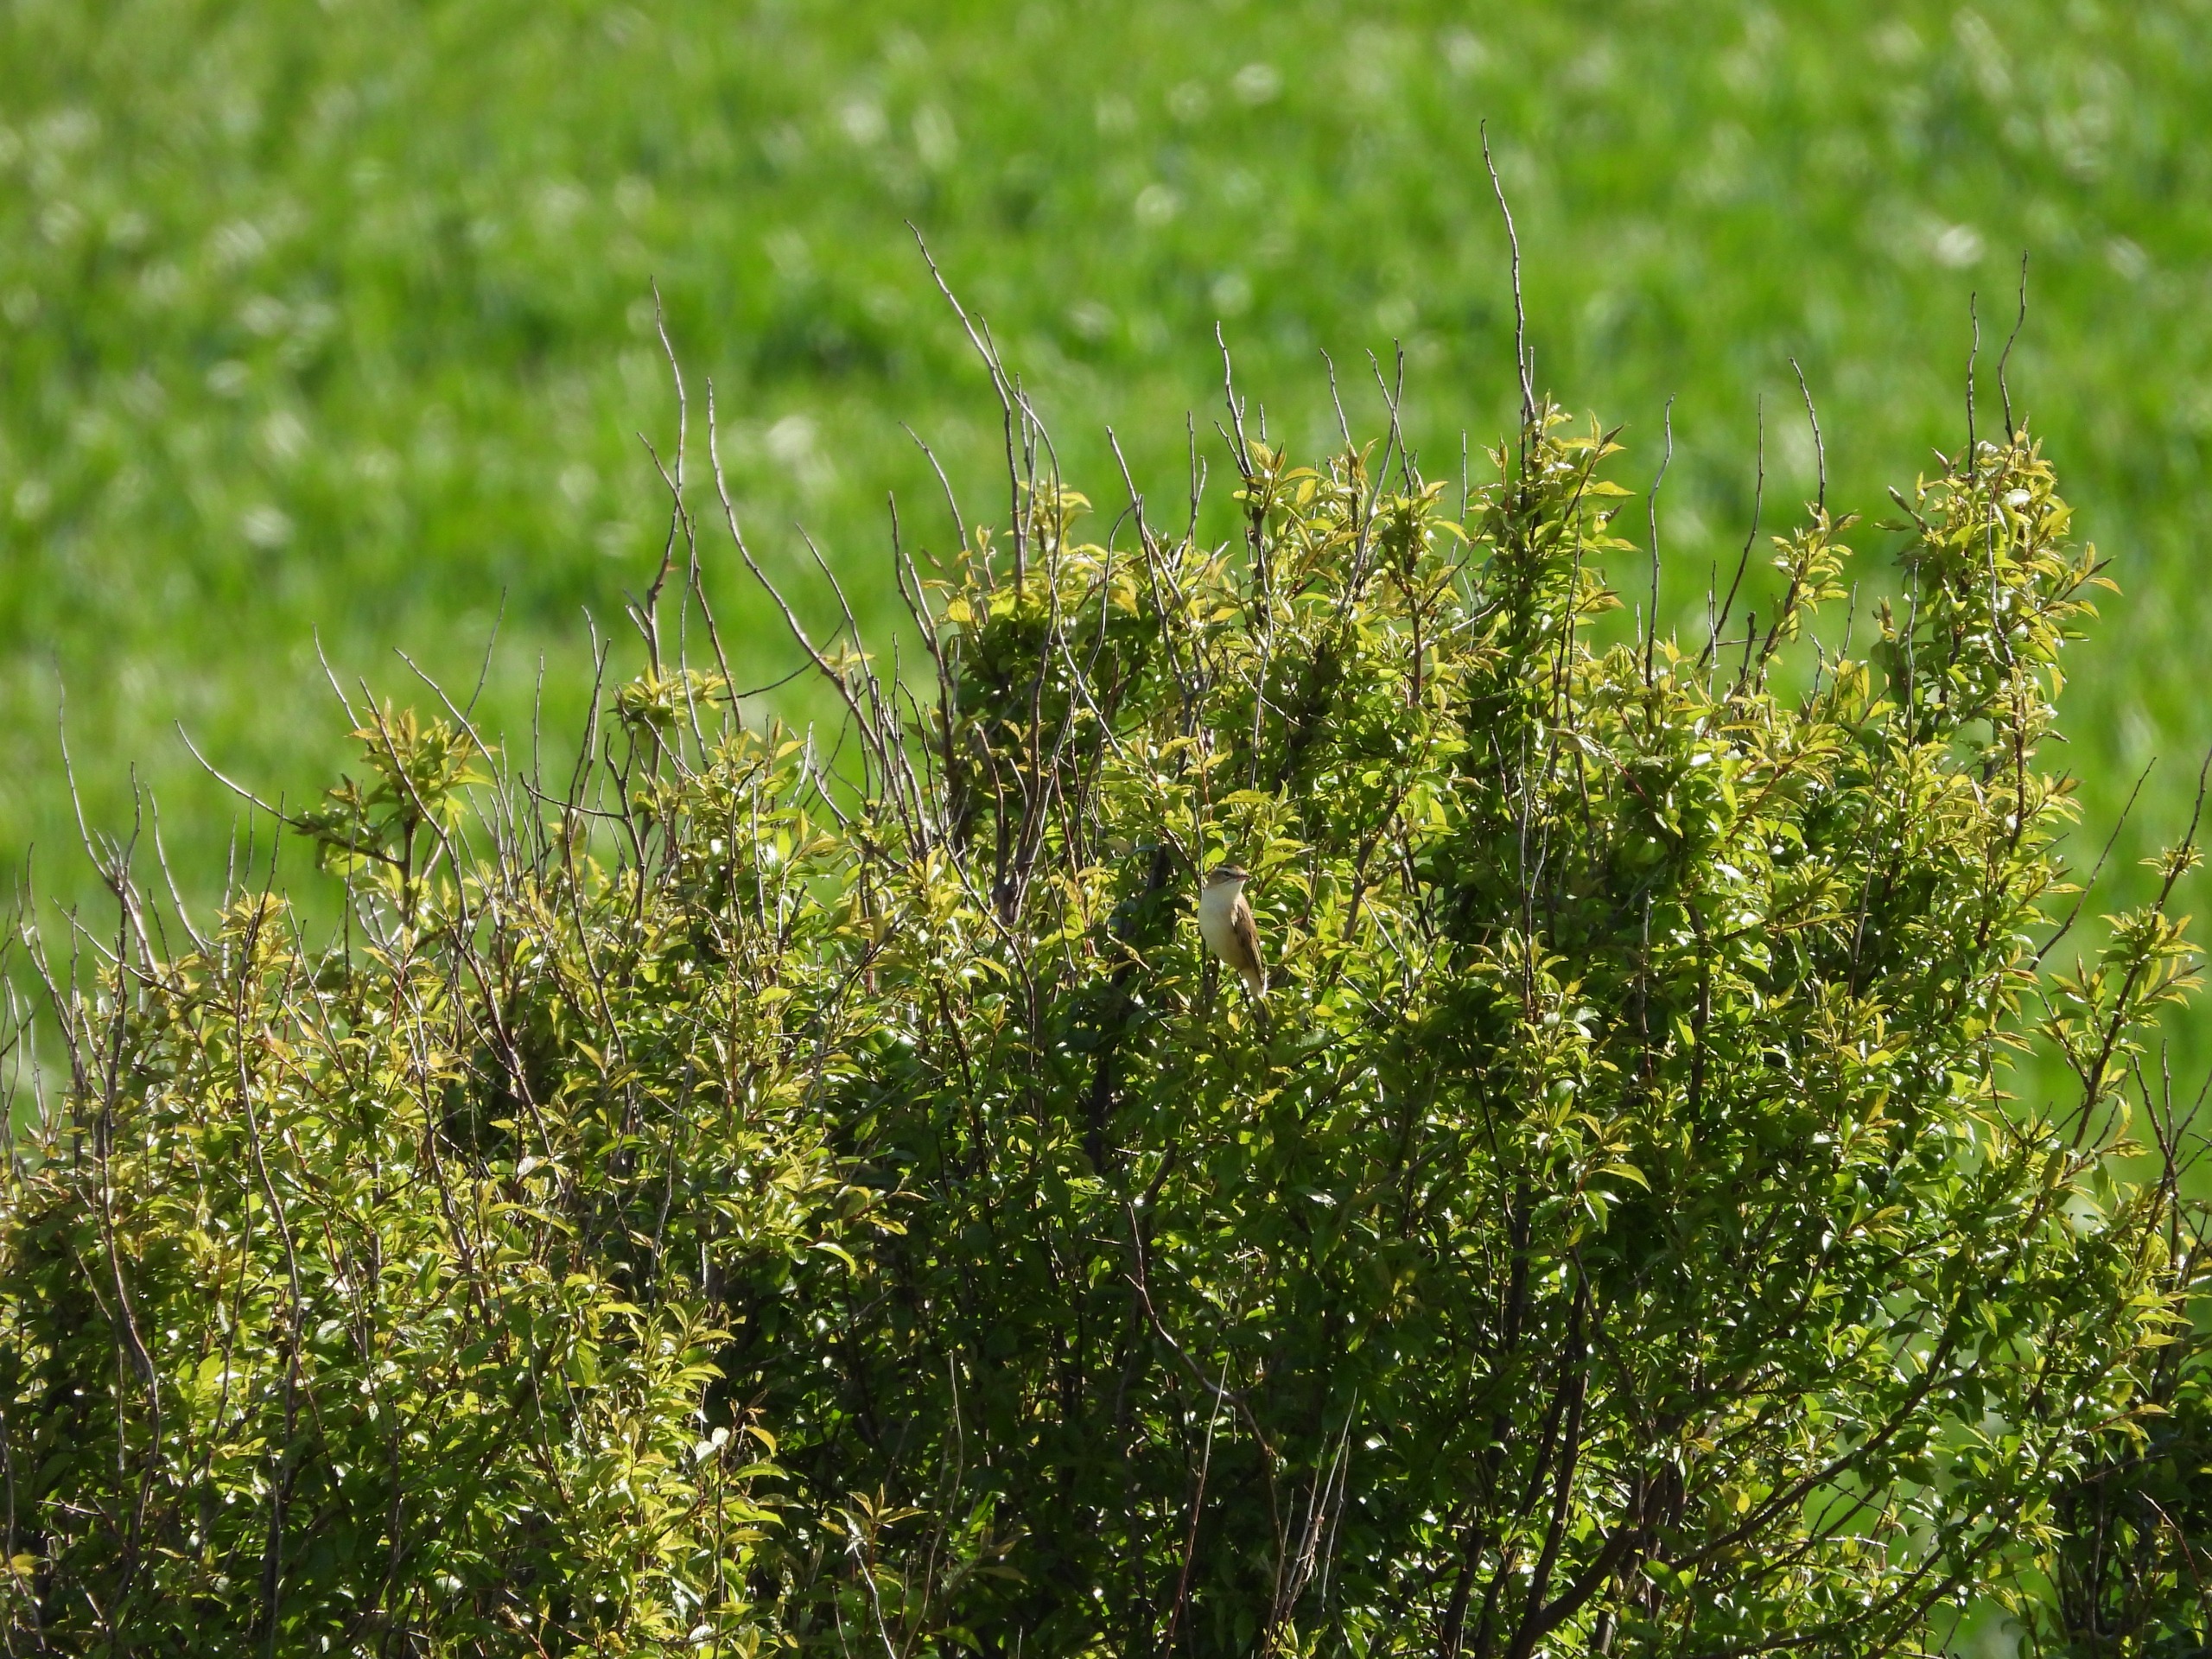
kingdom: Animalia
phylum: Chordata
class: Aves
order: Passeriformes
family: Acrocephalidae
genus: Acrocephalus
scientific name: Acrocephalus schoenobaenus
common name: Sivsanger
